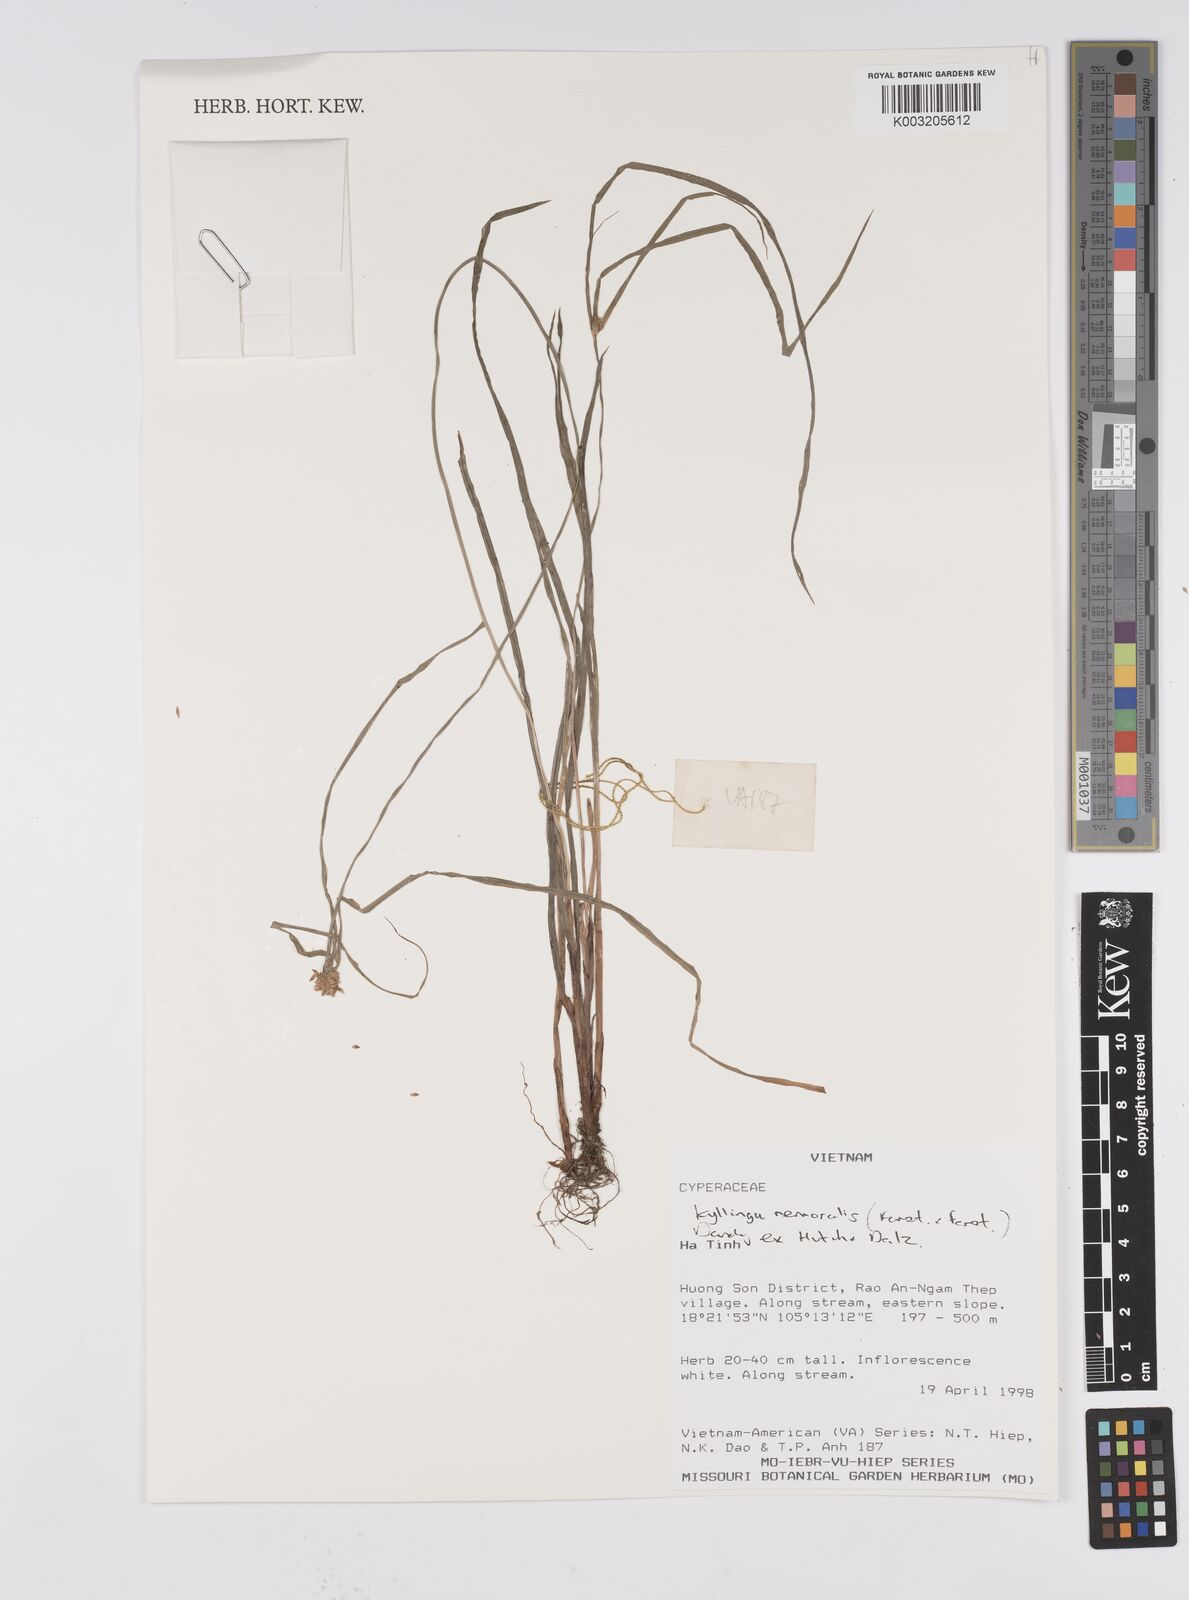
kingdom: Plantae
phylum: Tracheophyta
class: Liliopsida
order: Poales
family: Cyperaceae
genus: Cyperus
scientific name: Cyperus
